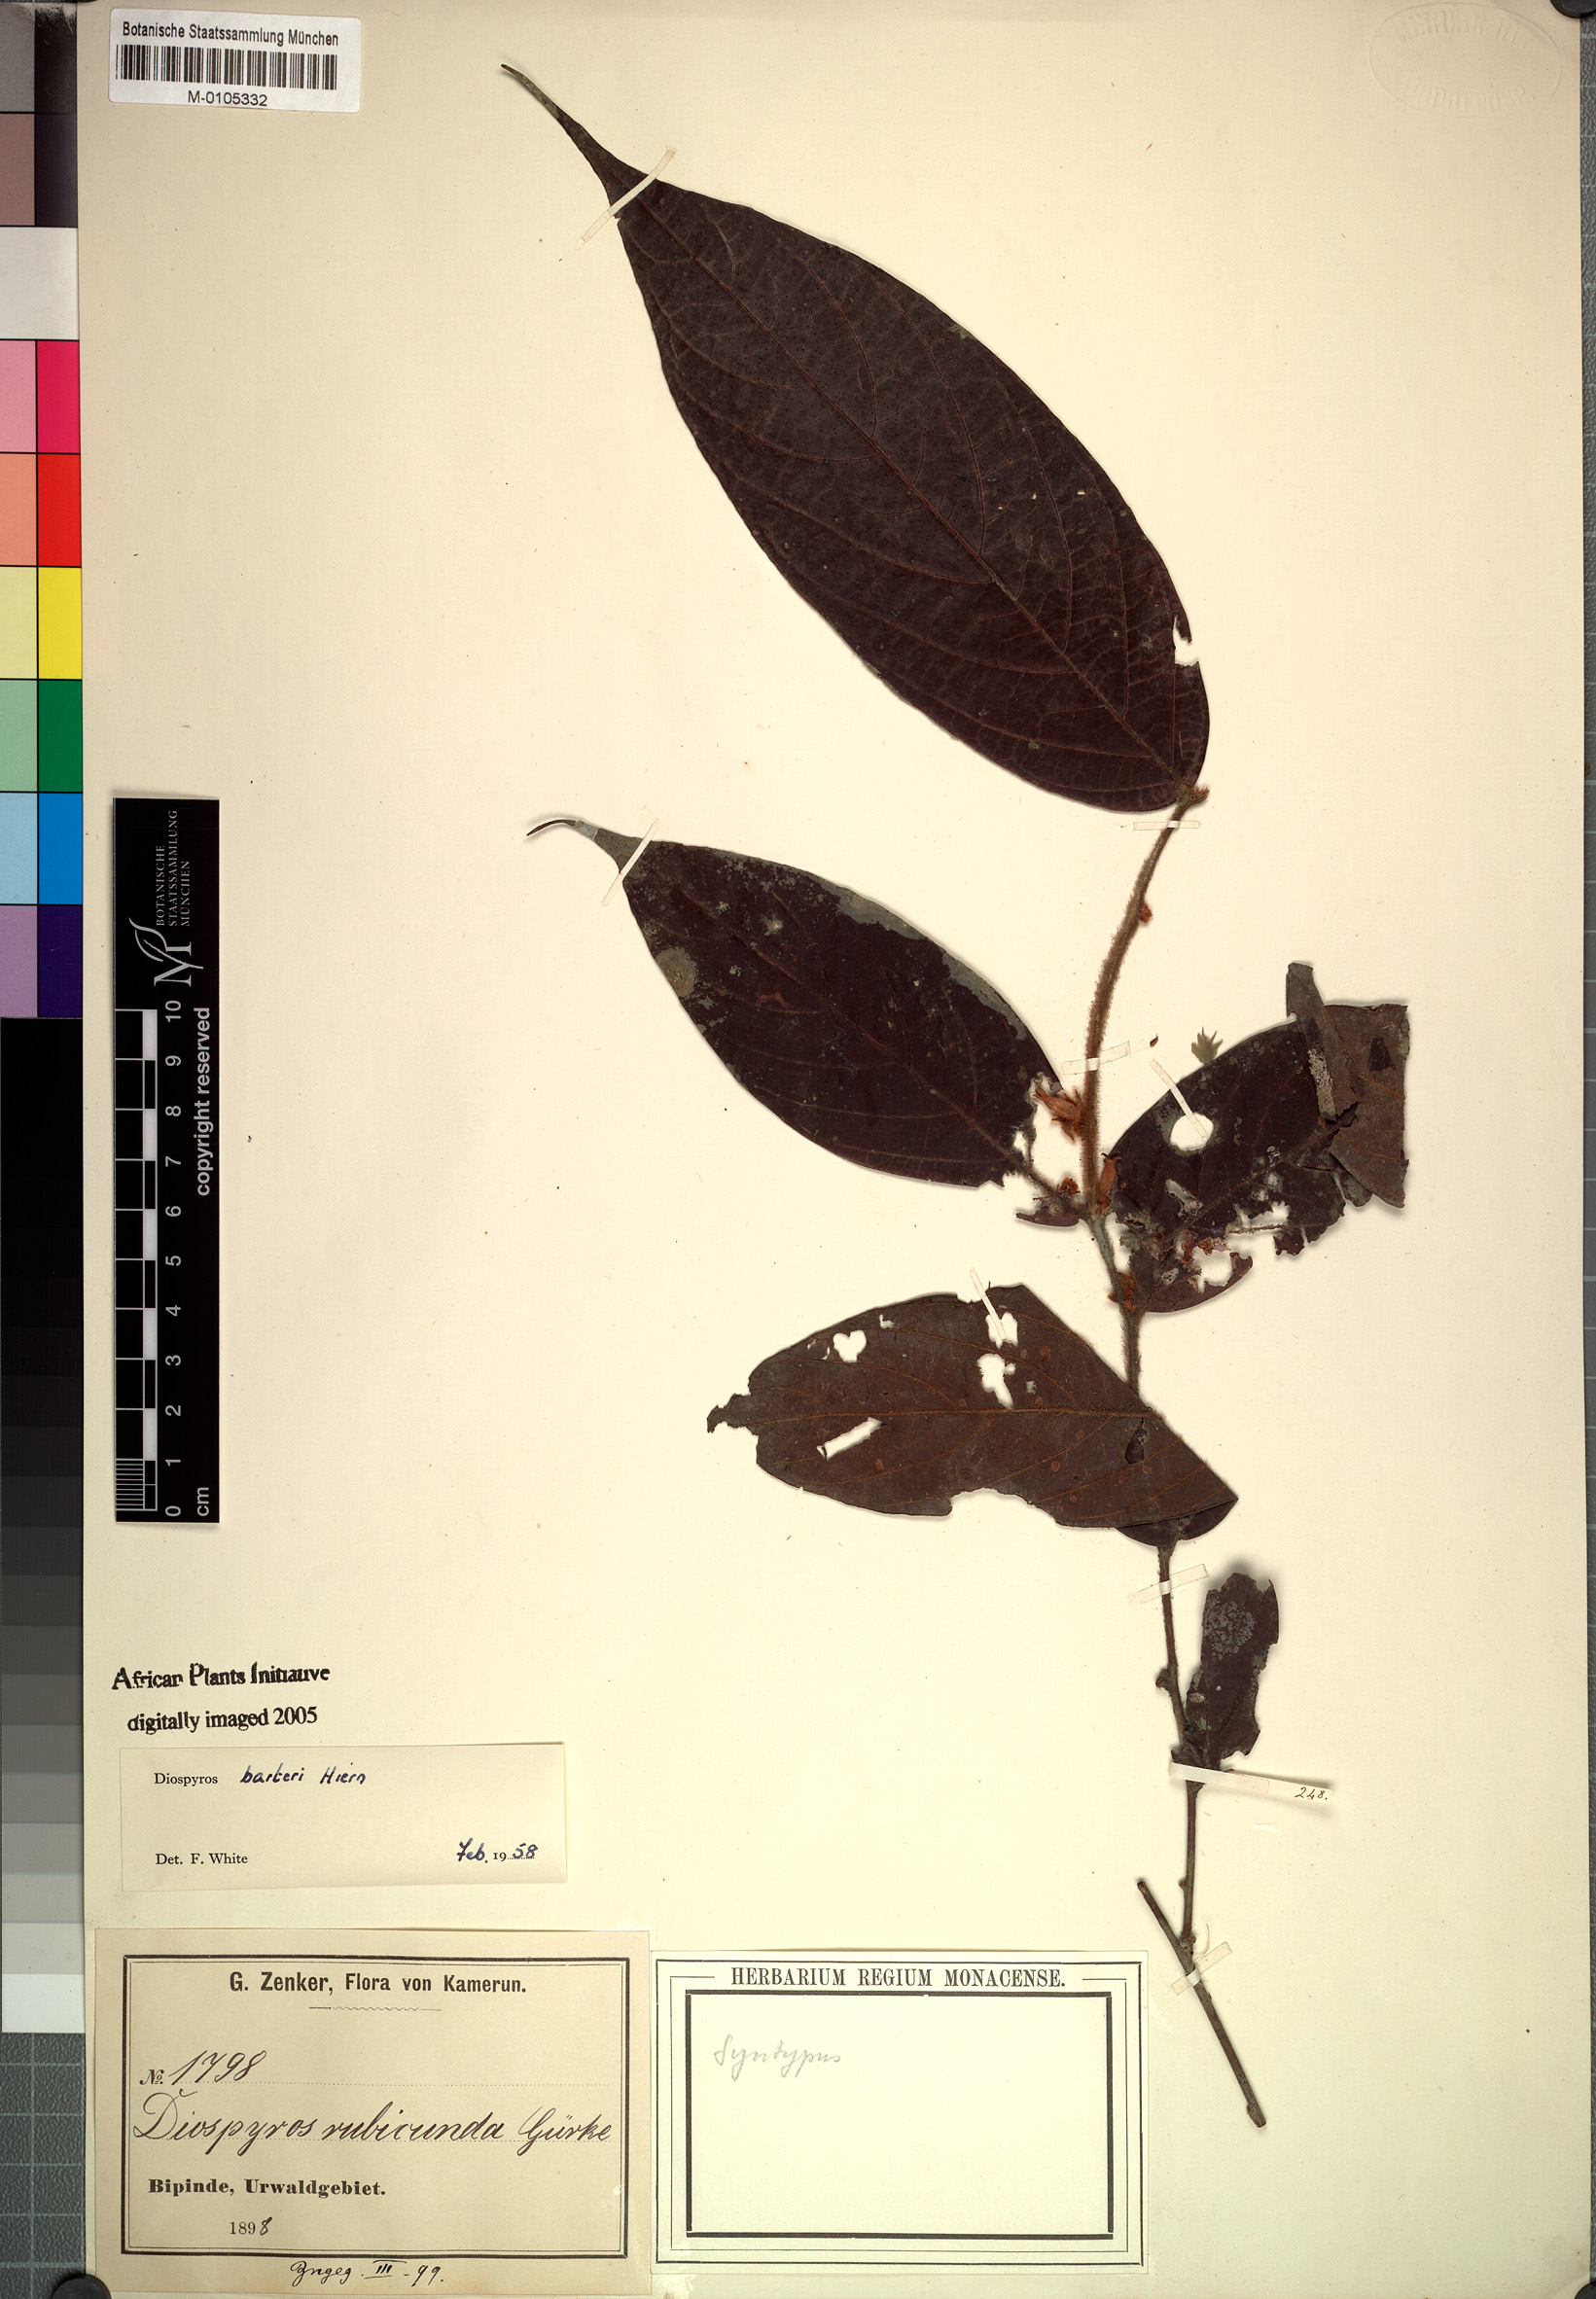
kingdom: Plantae
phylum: Tracheophyta
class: Magnoliopsida
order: Ericales
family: Ebenaceae
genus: Diospyros
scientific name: Diospyros barteri
